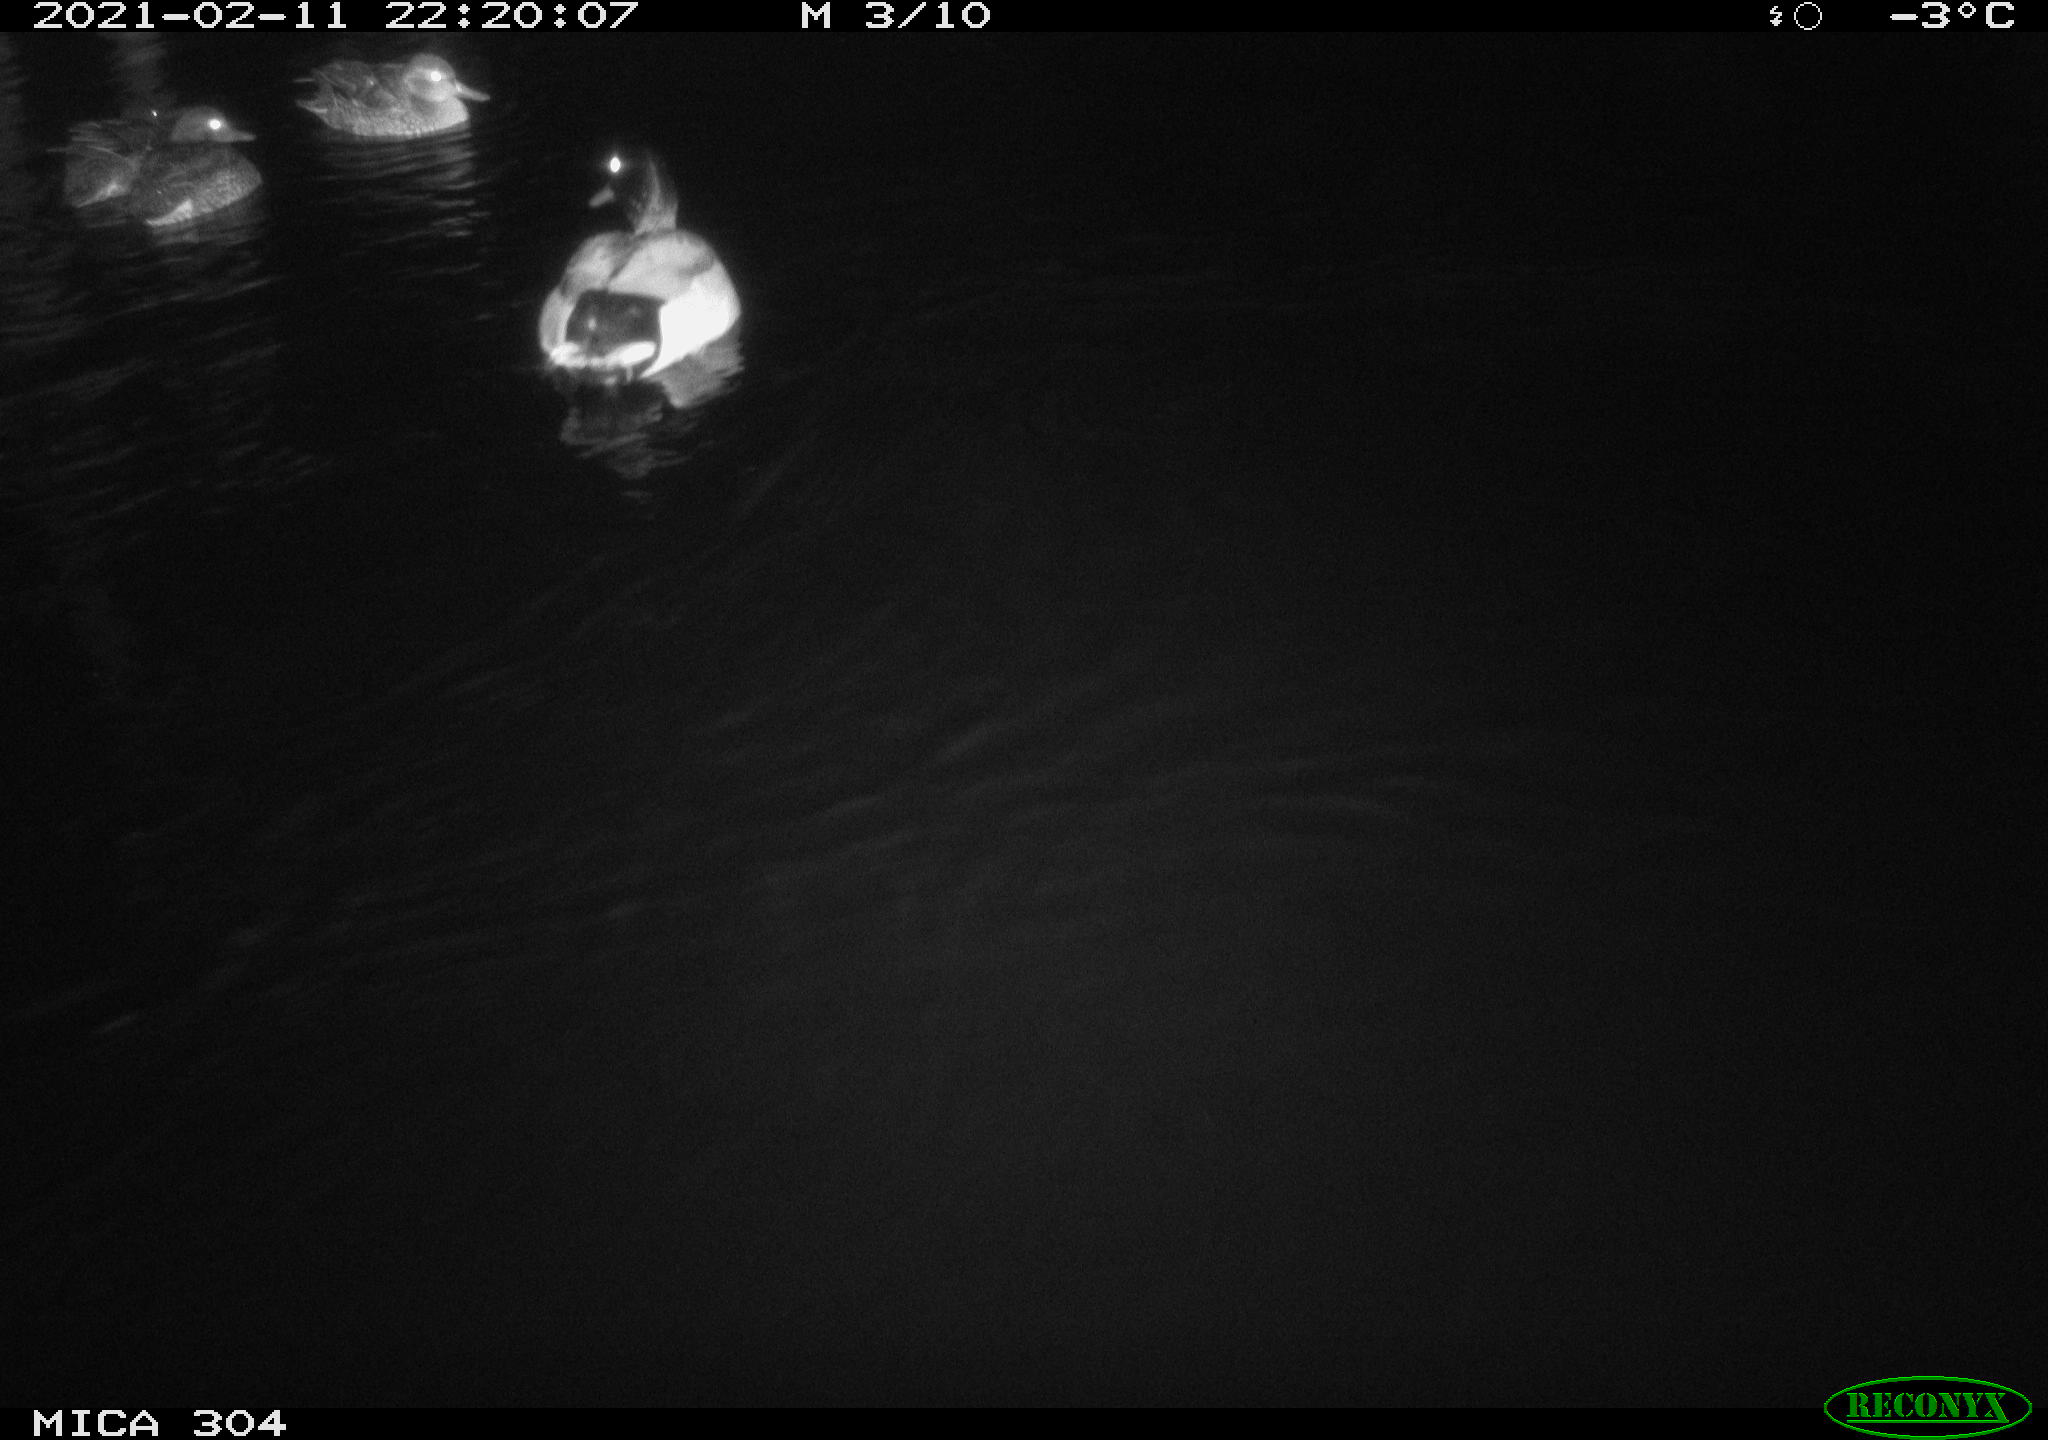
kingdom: Animalia
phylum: Chordata
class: Aves
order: Anseriformes
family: Anatidae
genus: Anas
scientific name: Anas platyrhynchos
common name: Mallard
